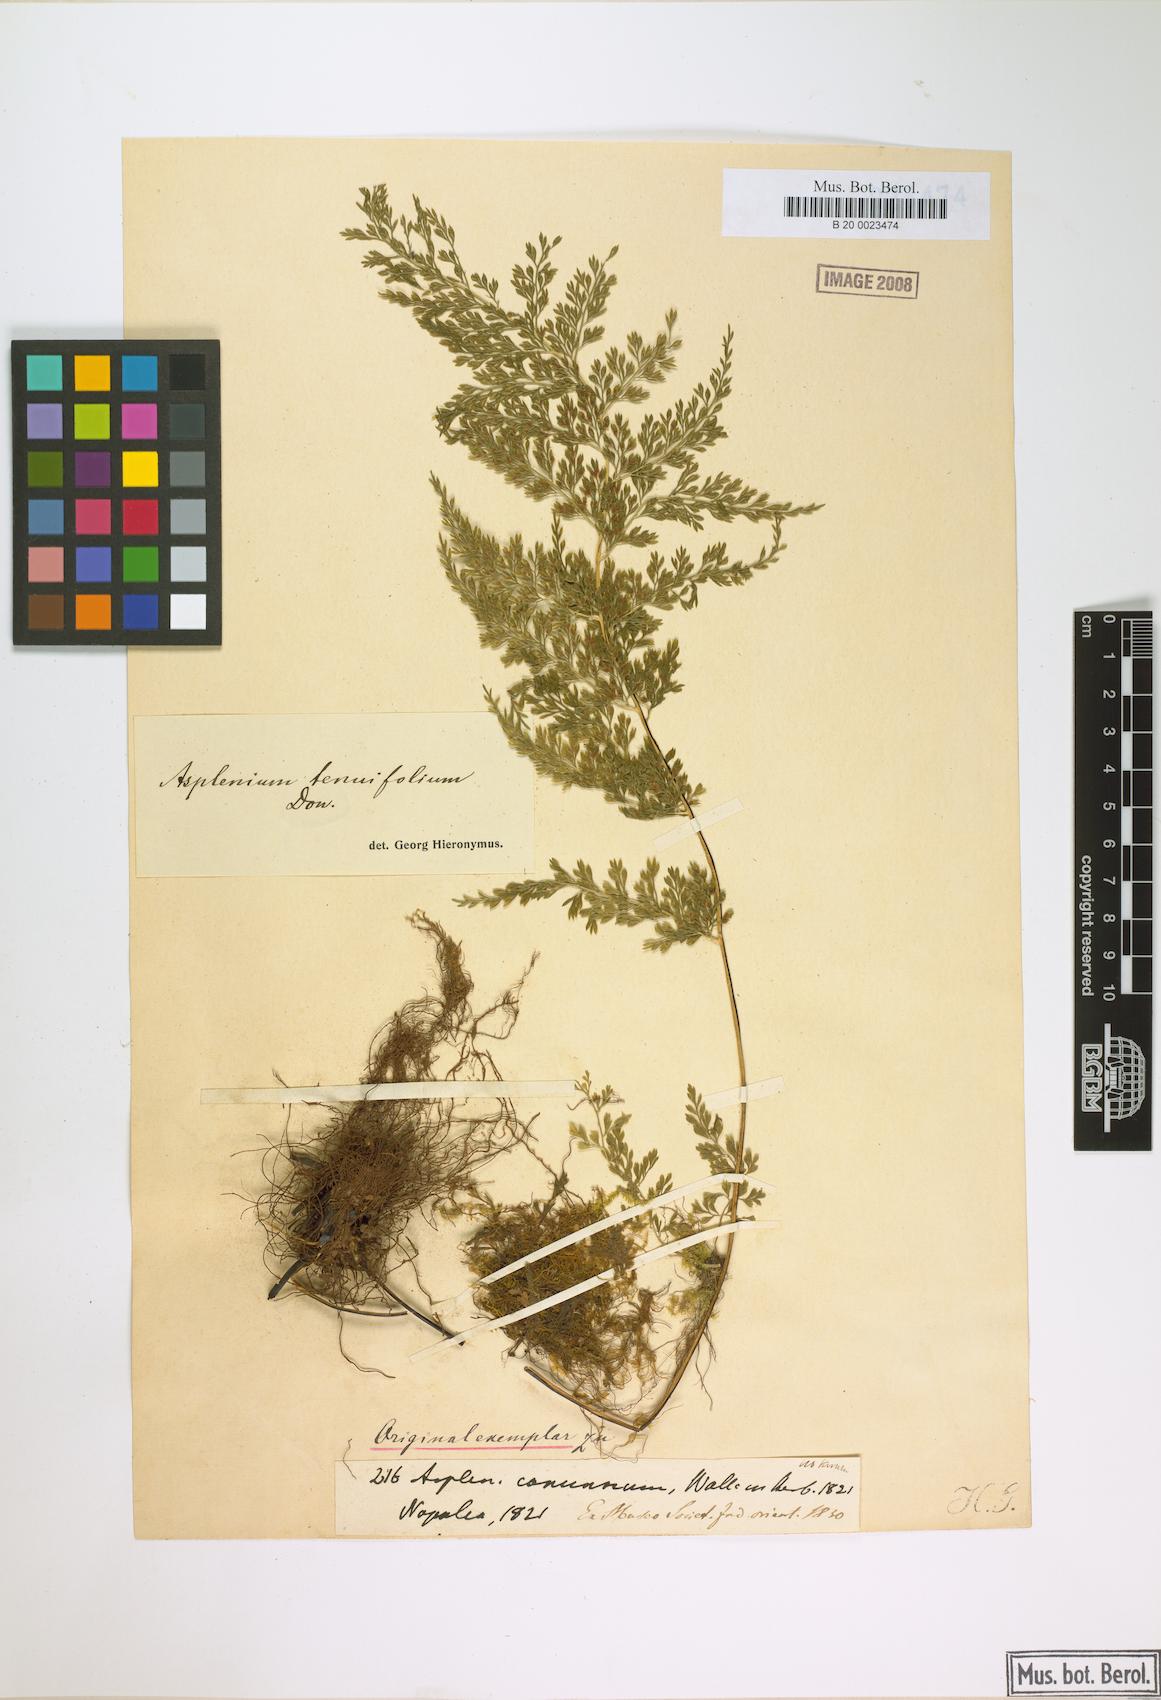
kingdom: Plantae
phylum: Tracheophyta
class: Polypodiopsida
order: Polypodiales
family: Aspleniaceae
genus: Asplenium
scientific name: Asplenium tenuifolium
